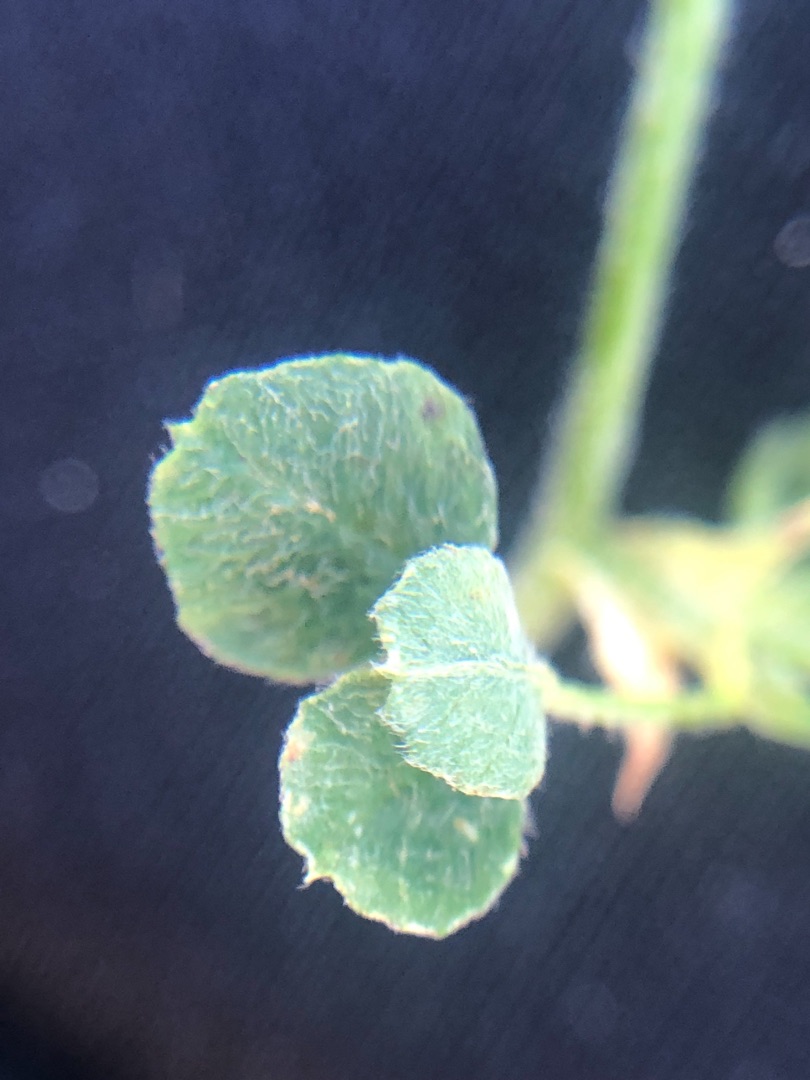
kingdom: Plantae
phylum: Tracheophyta
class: Magnoliopsida
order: Fabales
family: Fabaceae
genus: Medicago
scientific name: Medicago lupulina
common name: Humle-sneglebælg
